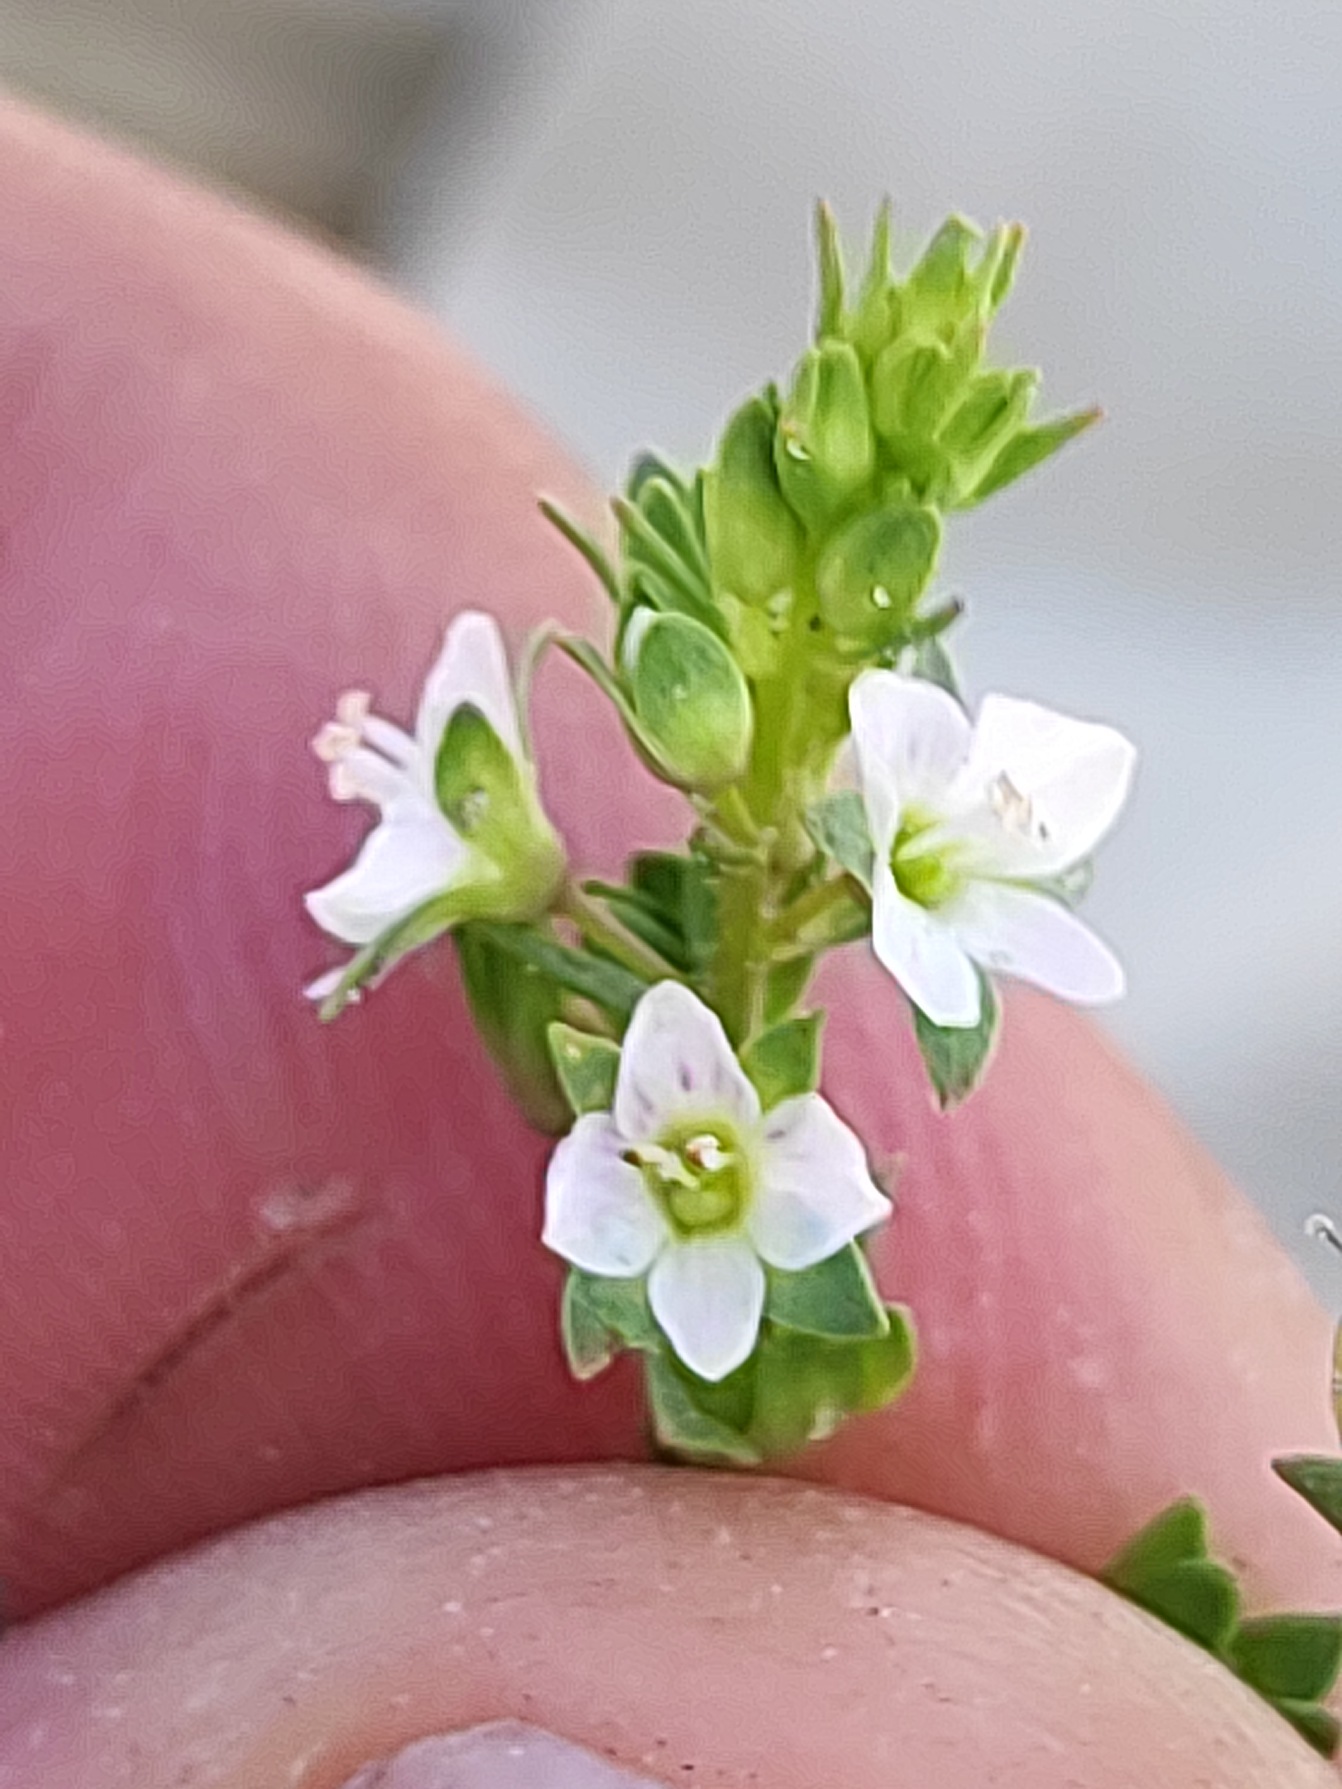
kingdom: Plantae
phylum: Tracheophyta
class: Magnoliopsida
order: Lamiales
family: Plantaginaceae
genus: Veronica
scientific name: Veronica catenata
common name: Vand-ærenpris
